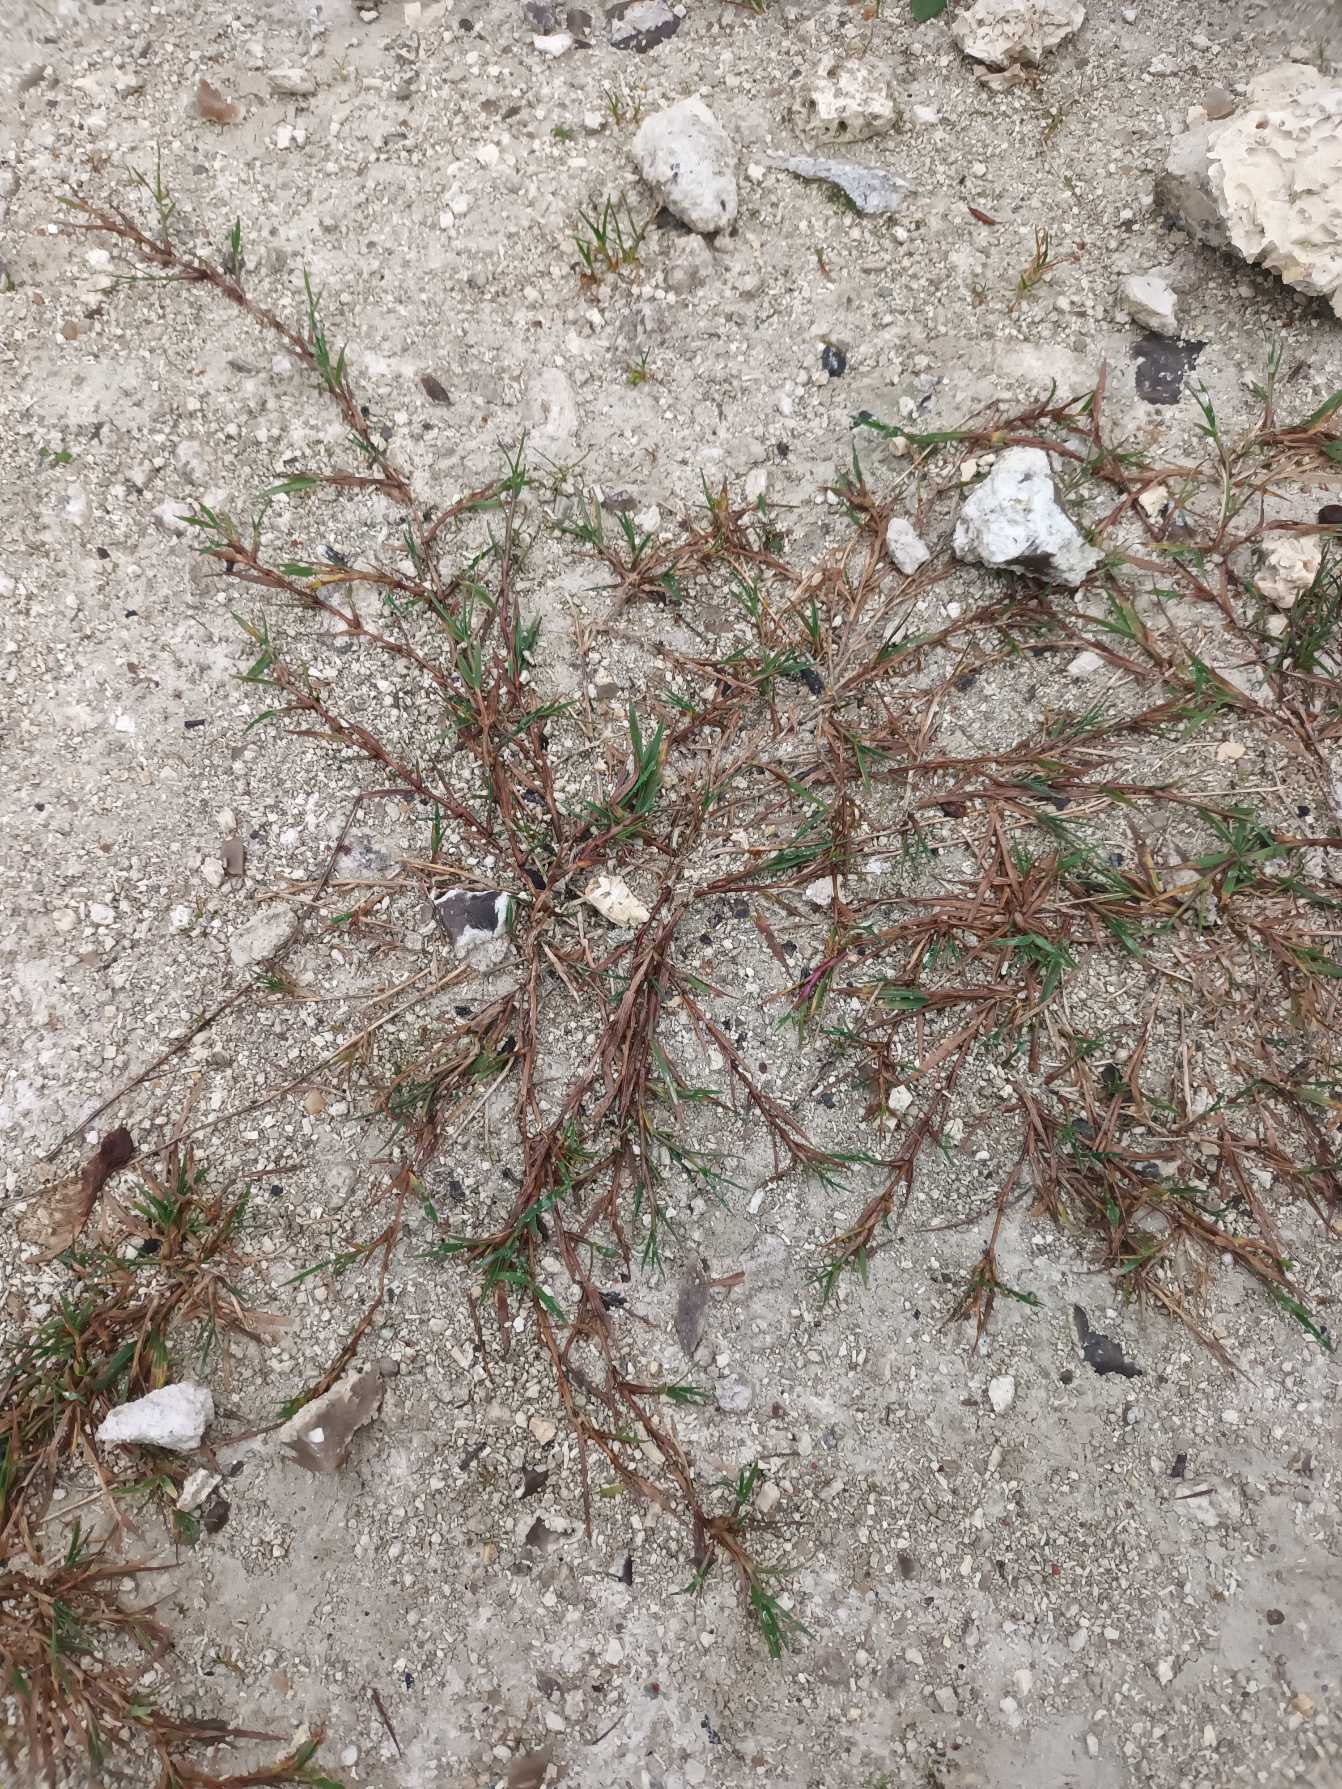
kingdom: Plantae
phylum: Tracheophyta
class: Liliopsida
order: Poales
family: Poaceae
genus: Agrostis
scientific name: Agrostis stolonifera
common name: Kryb-hvene
